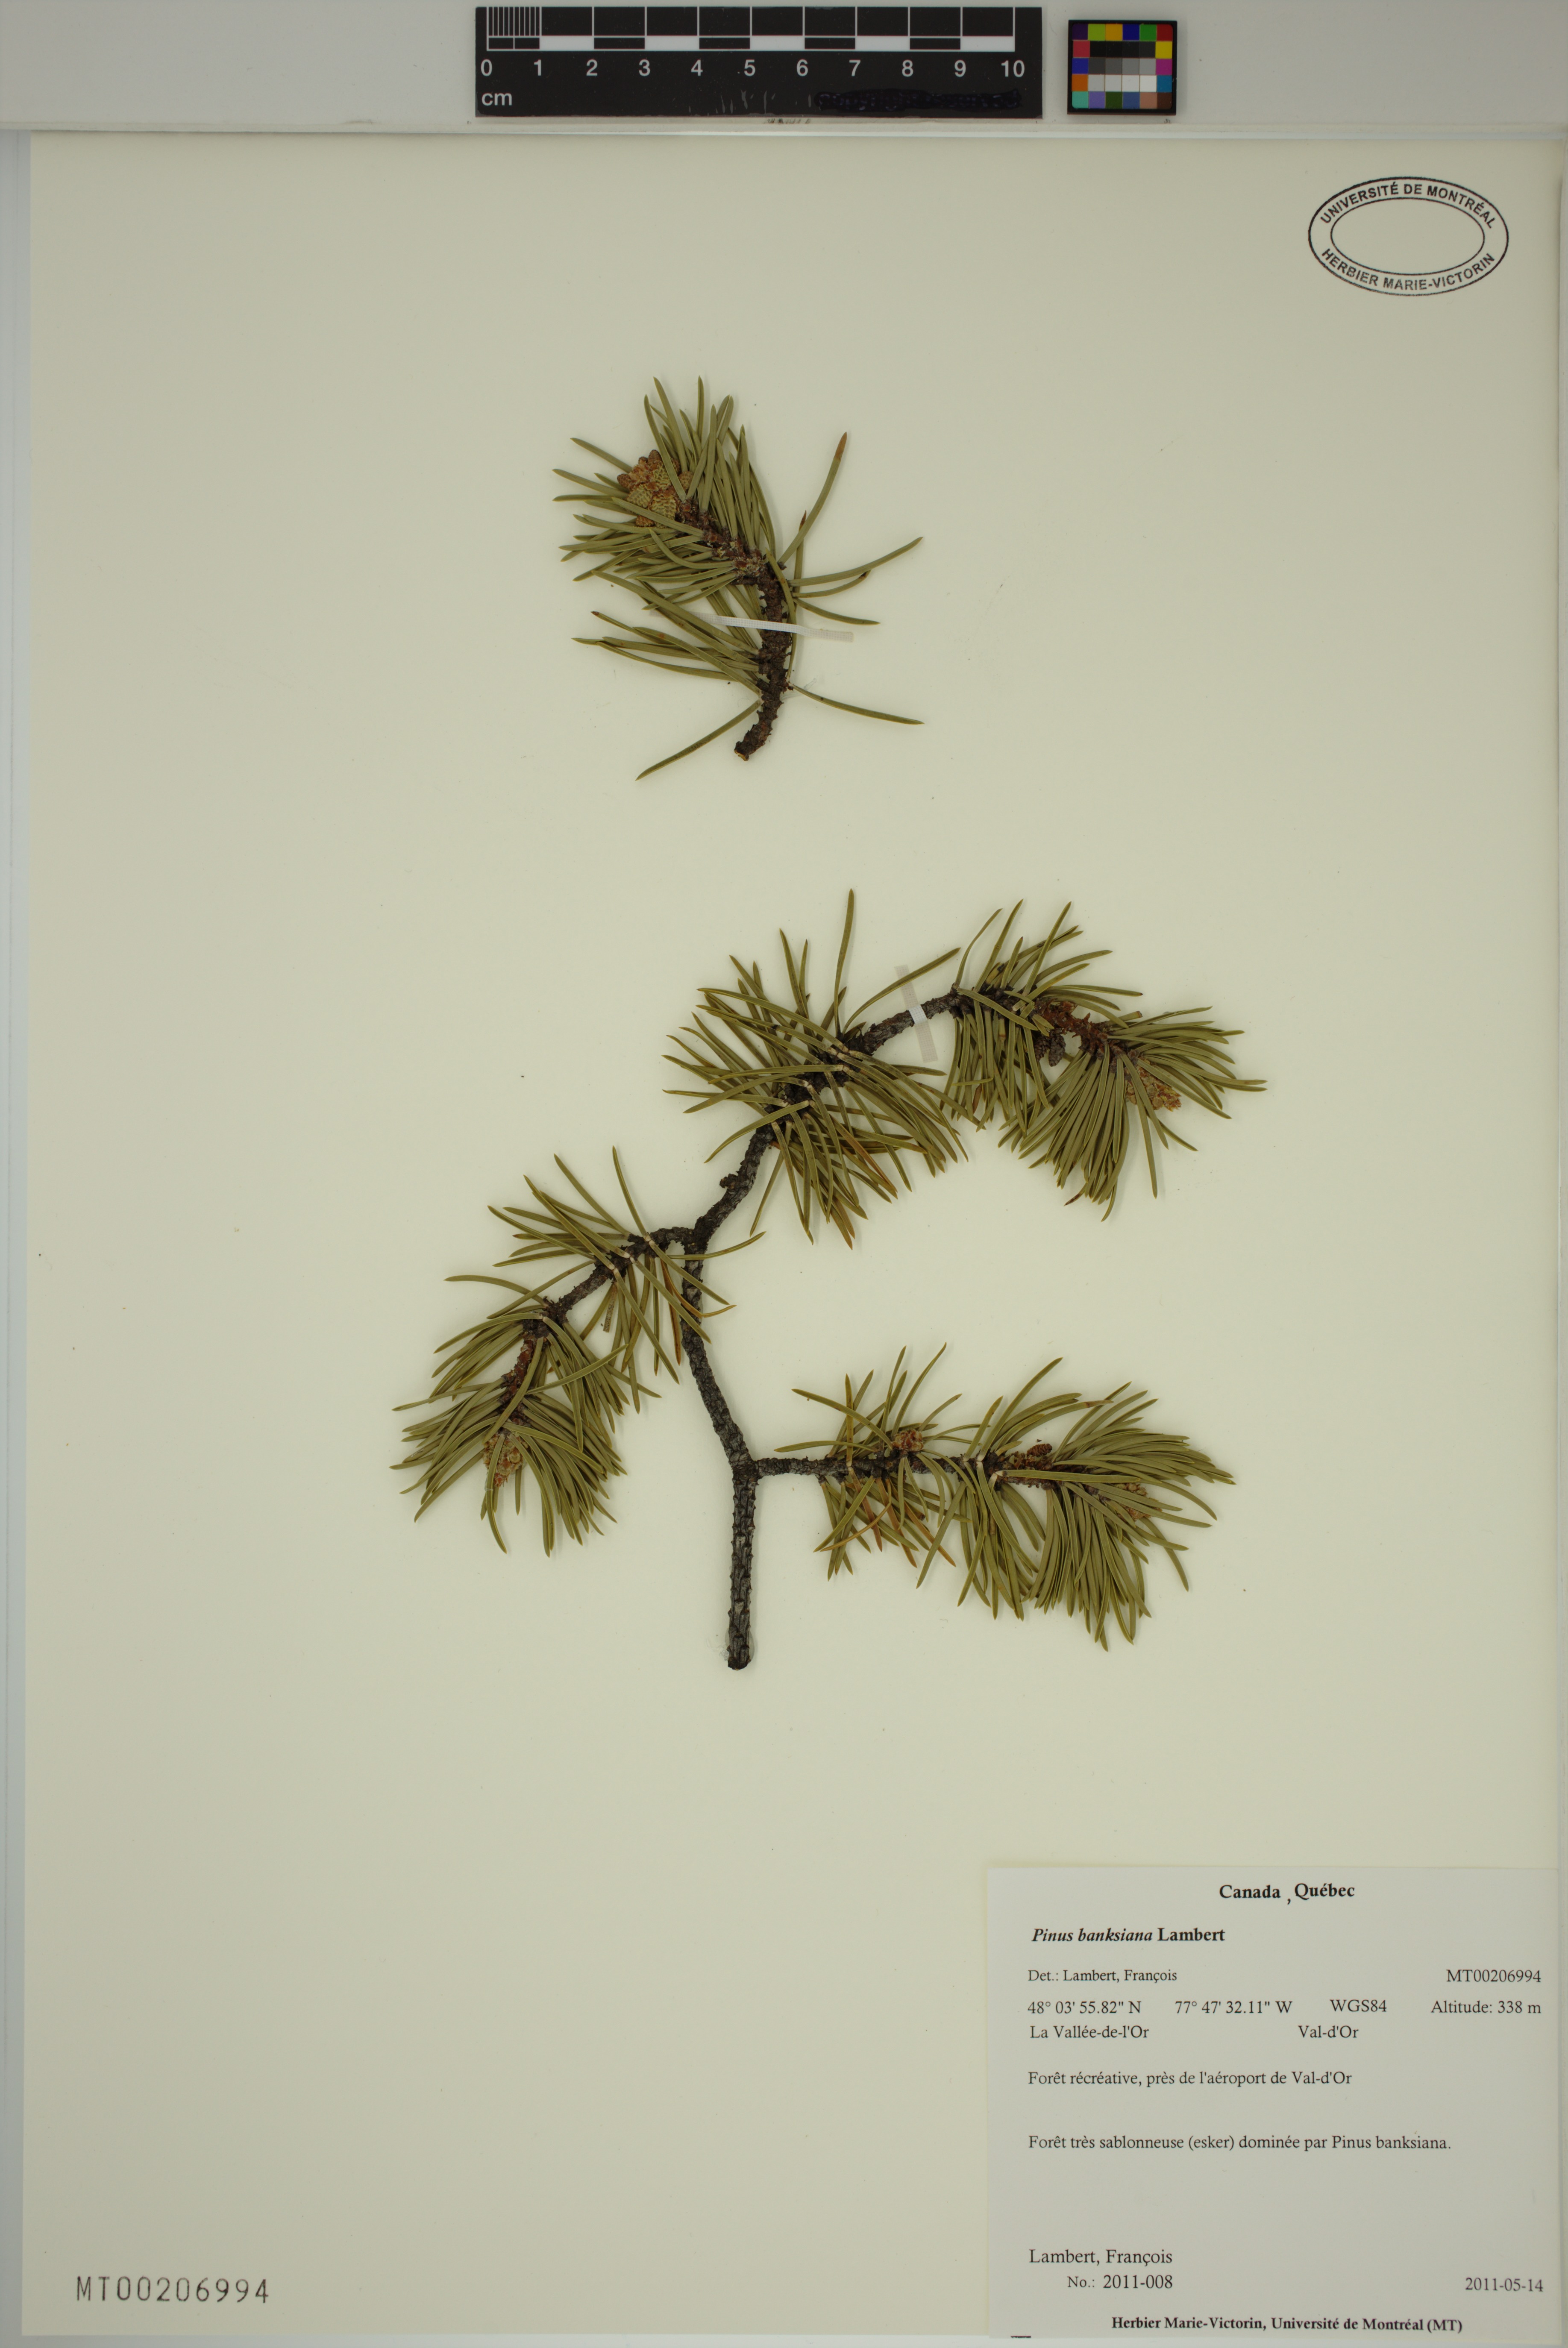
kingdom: Plantae
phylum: Tracheophyta
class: Pinopsida
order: Pinales
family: Pinaceae
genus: Pinus
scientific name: Pinus banksiana
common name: Jack pine
